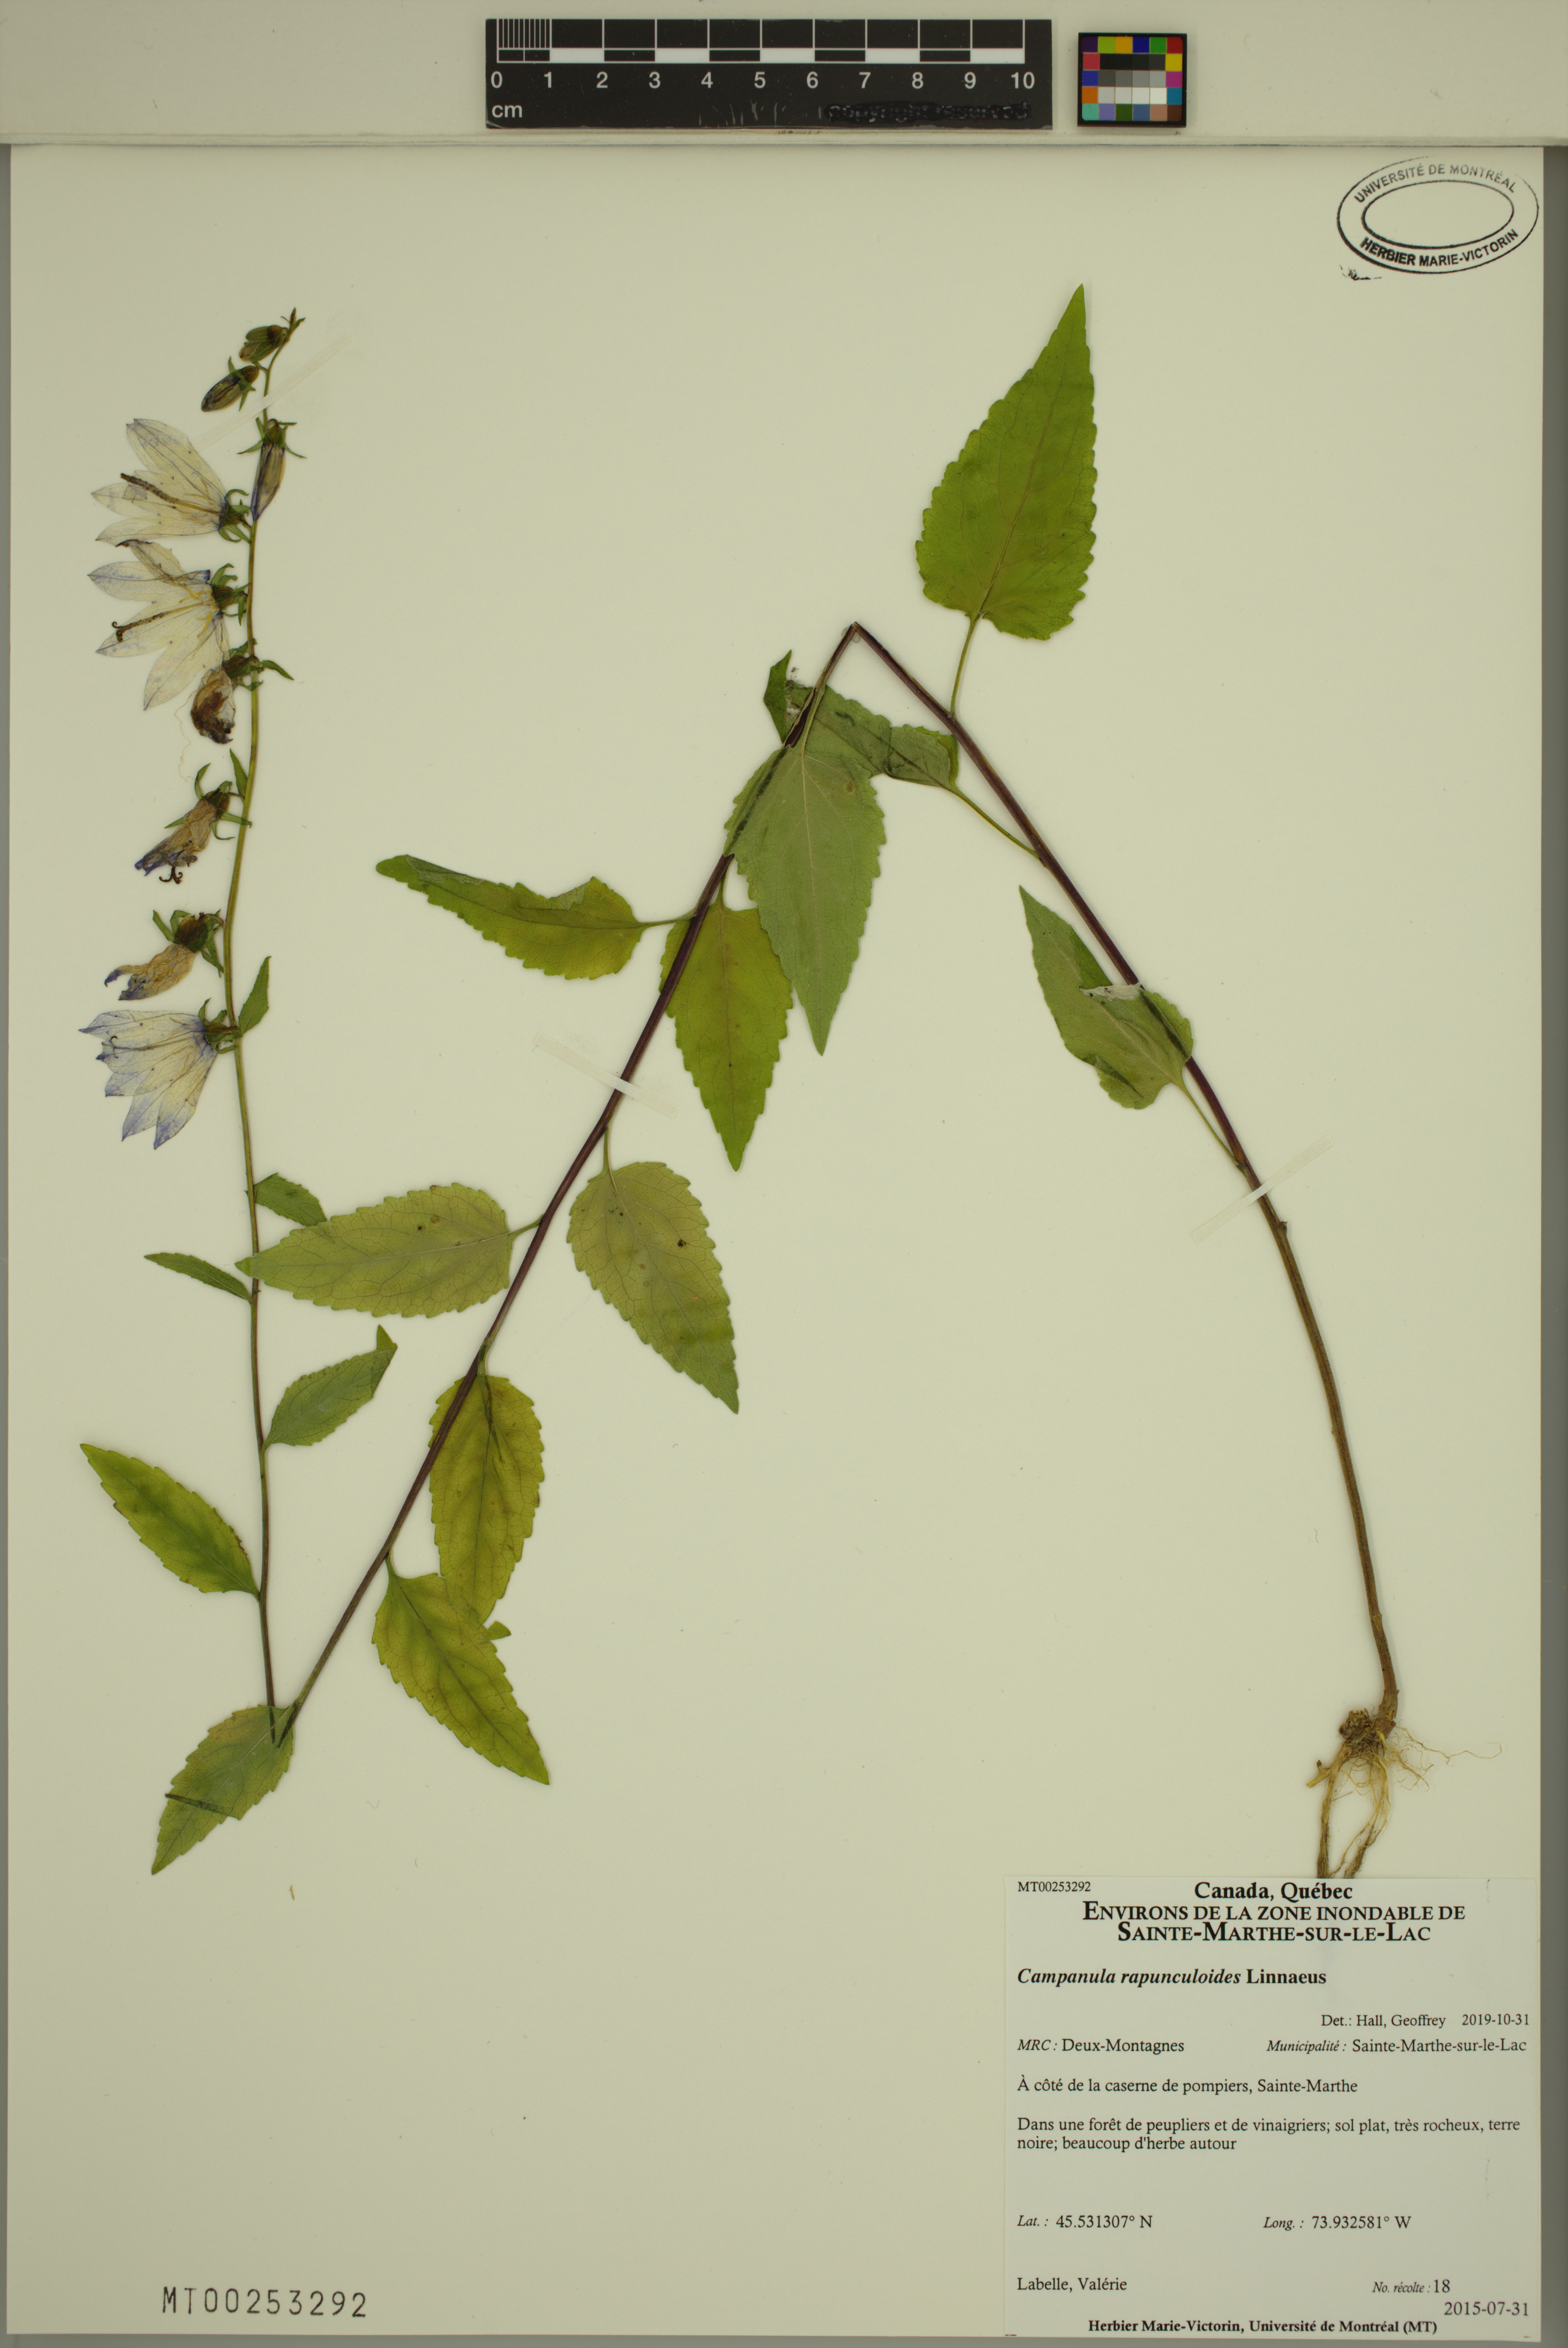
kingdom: Plantae
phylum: Tracheophyta
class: Magnoliopsida
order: Asterales
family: Campanulaceae
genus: Campanula
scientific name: Campanula rapunculoides
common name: Creeping bellflower
